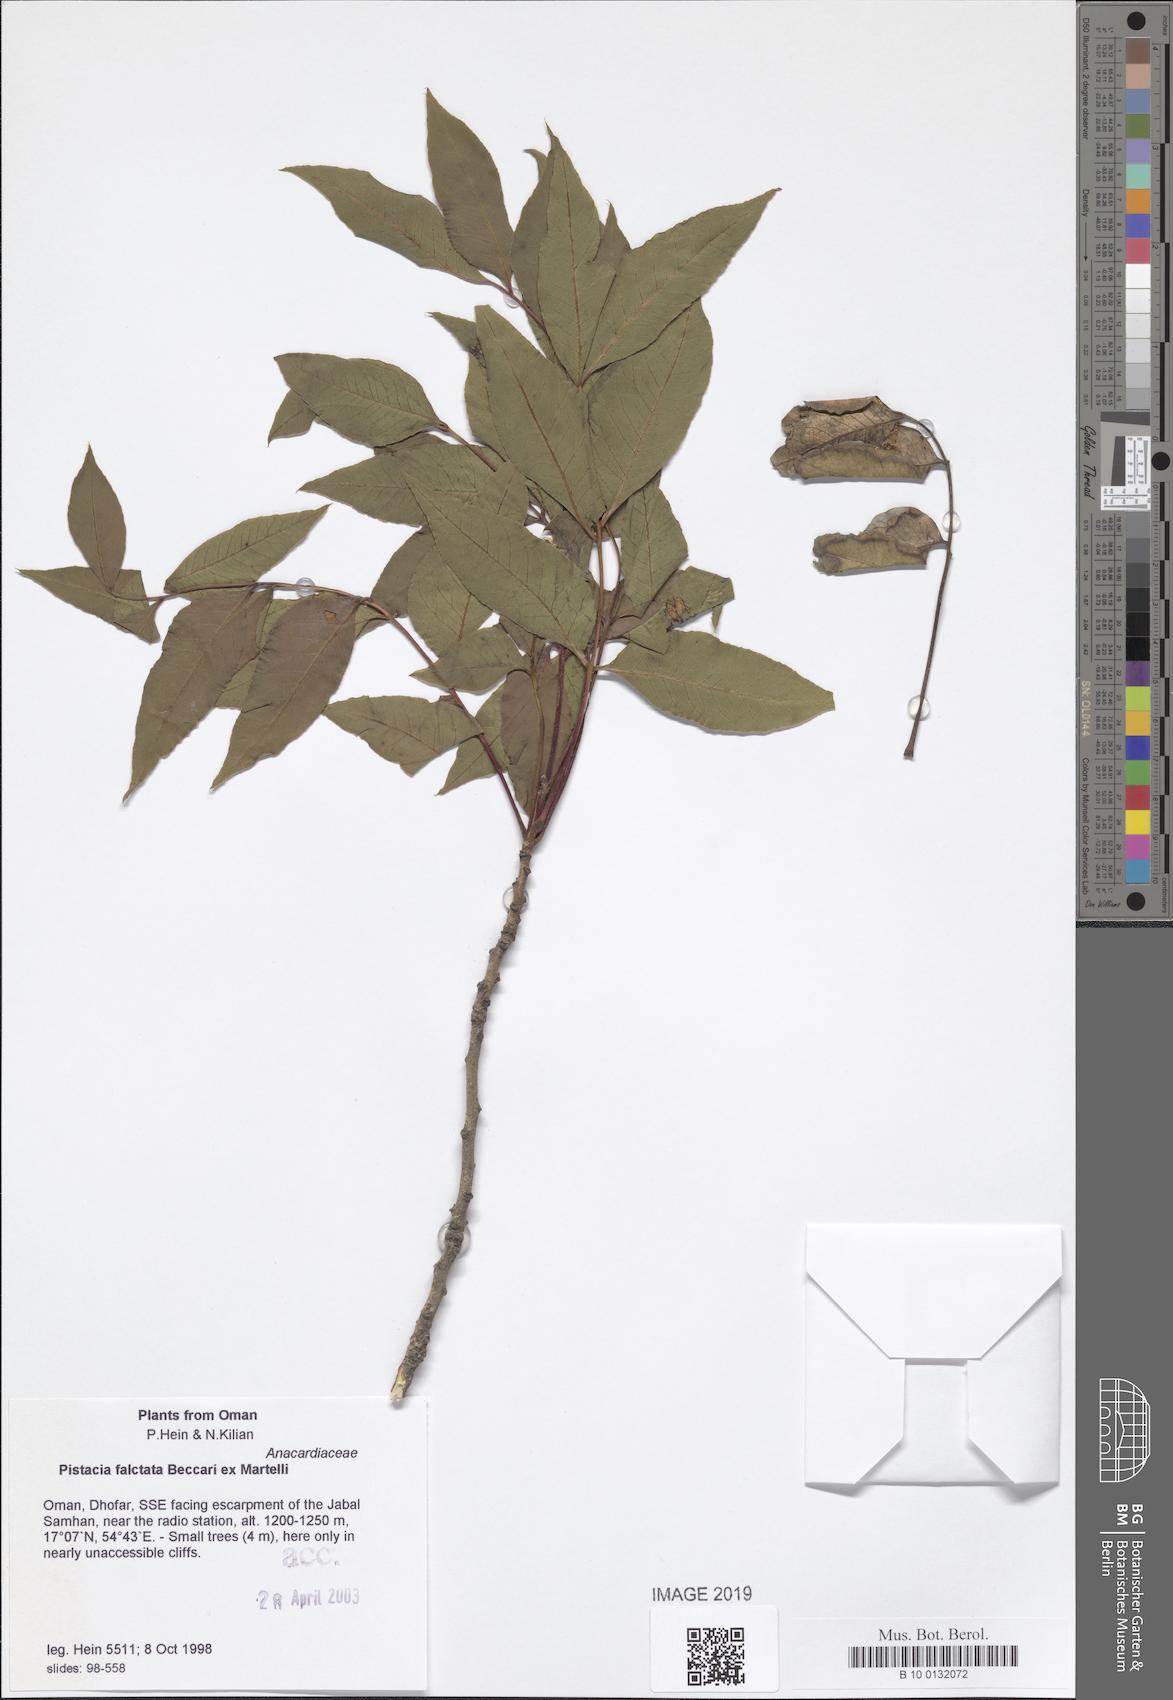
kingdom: Plantae
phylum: Tracheophyta
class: Magnoliopsida
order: Sapindales
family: Anacardiaceae
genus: Pistacia
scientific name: Pistacia falcata
